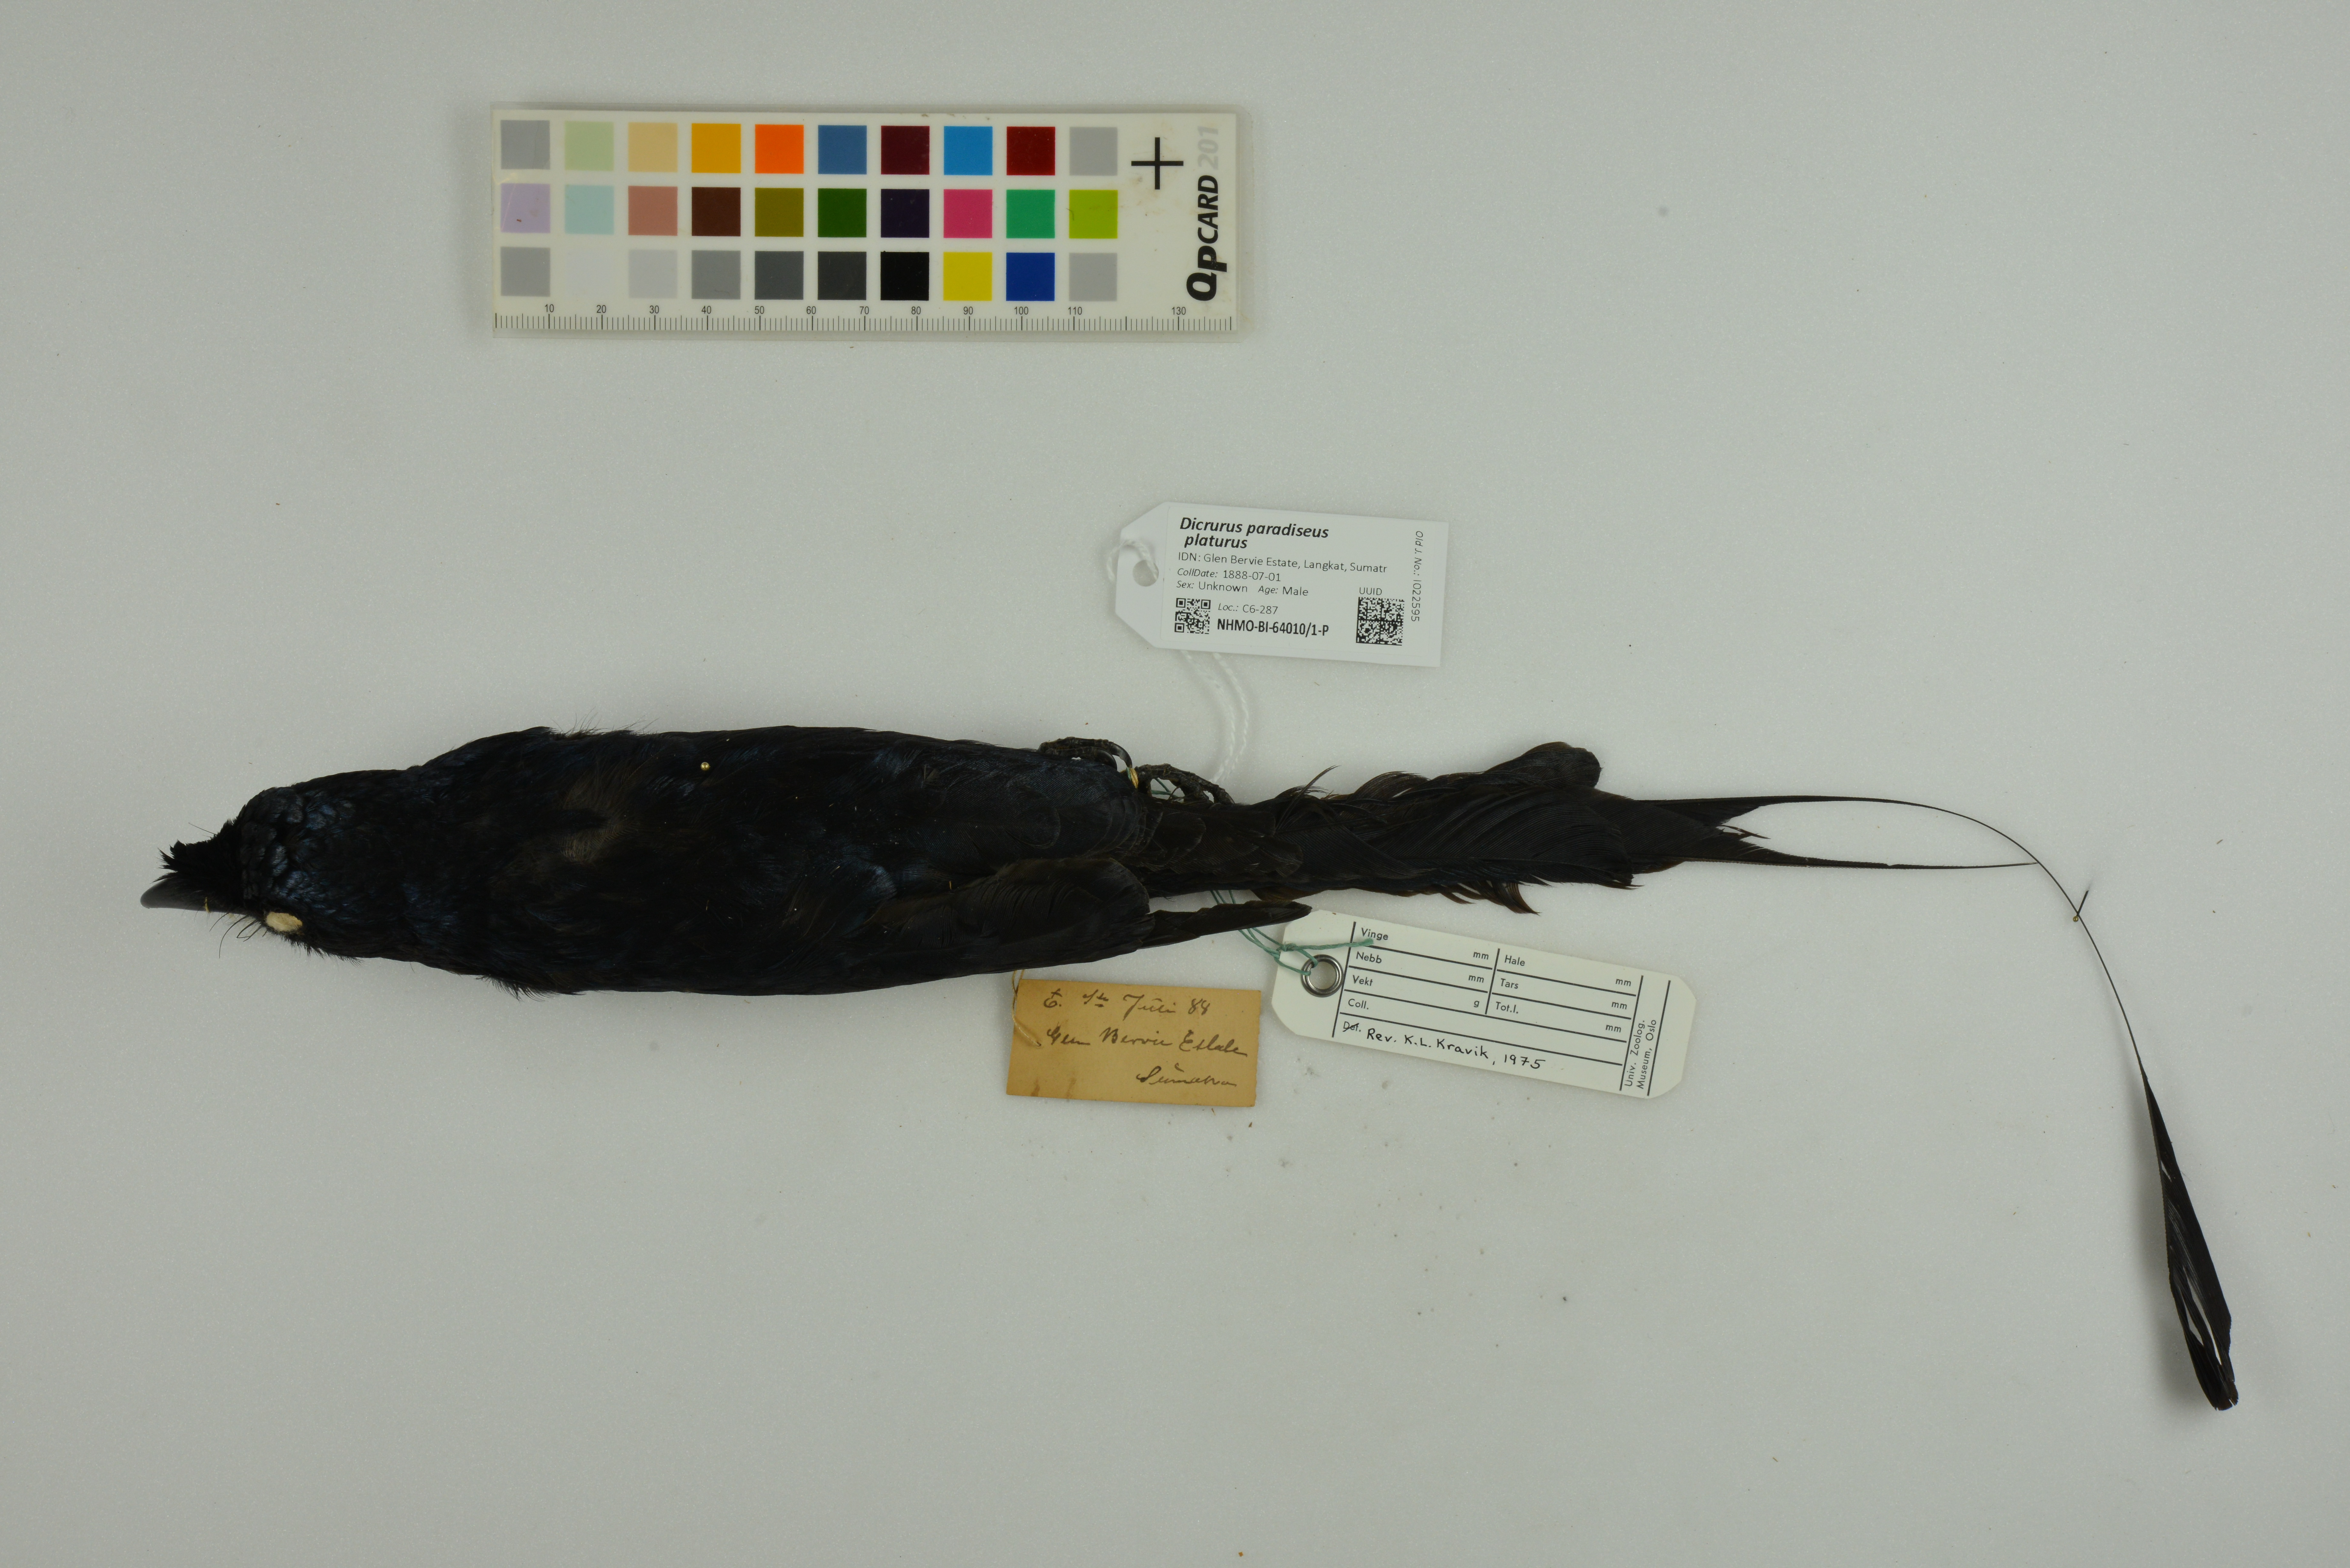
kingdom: Animalia
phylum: Chordata
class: Aves
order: Passeriformes
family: Dicruridae
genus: Dicrurus
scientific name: Dicrurus paradiseus
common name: Greater racket-tailed drongo
